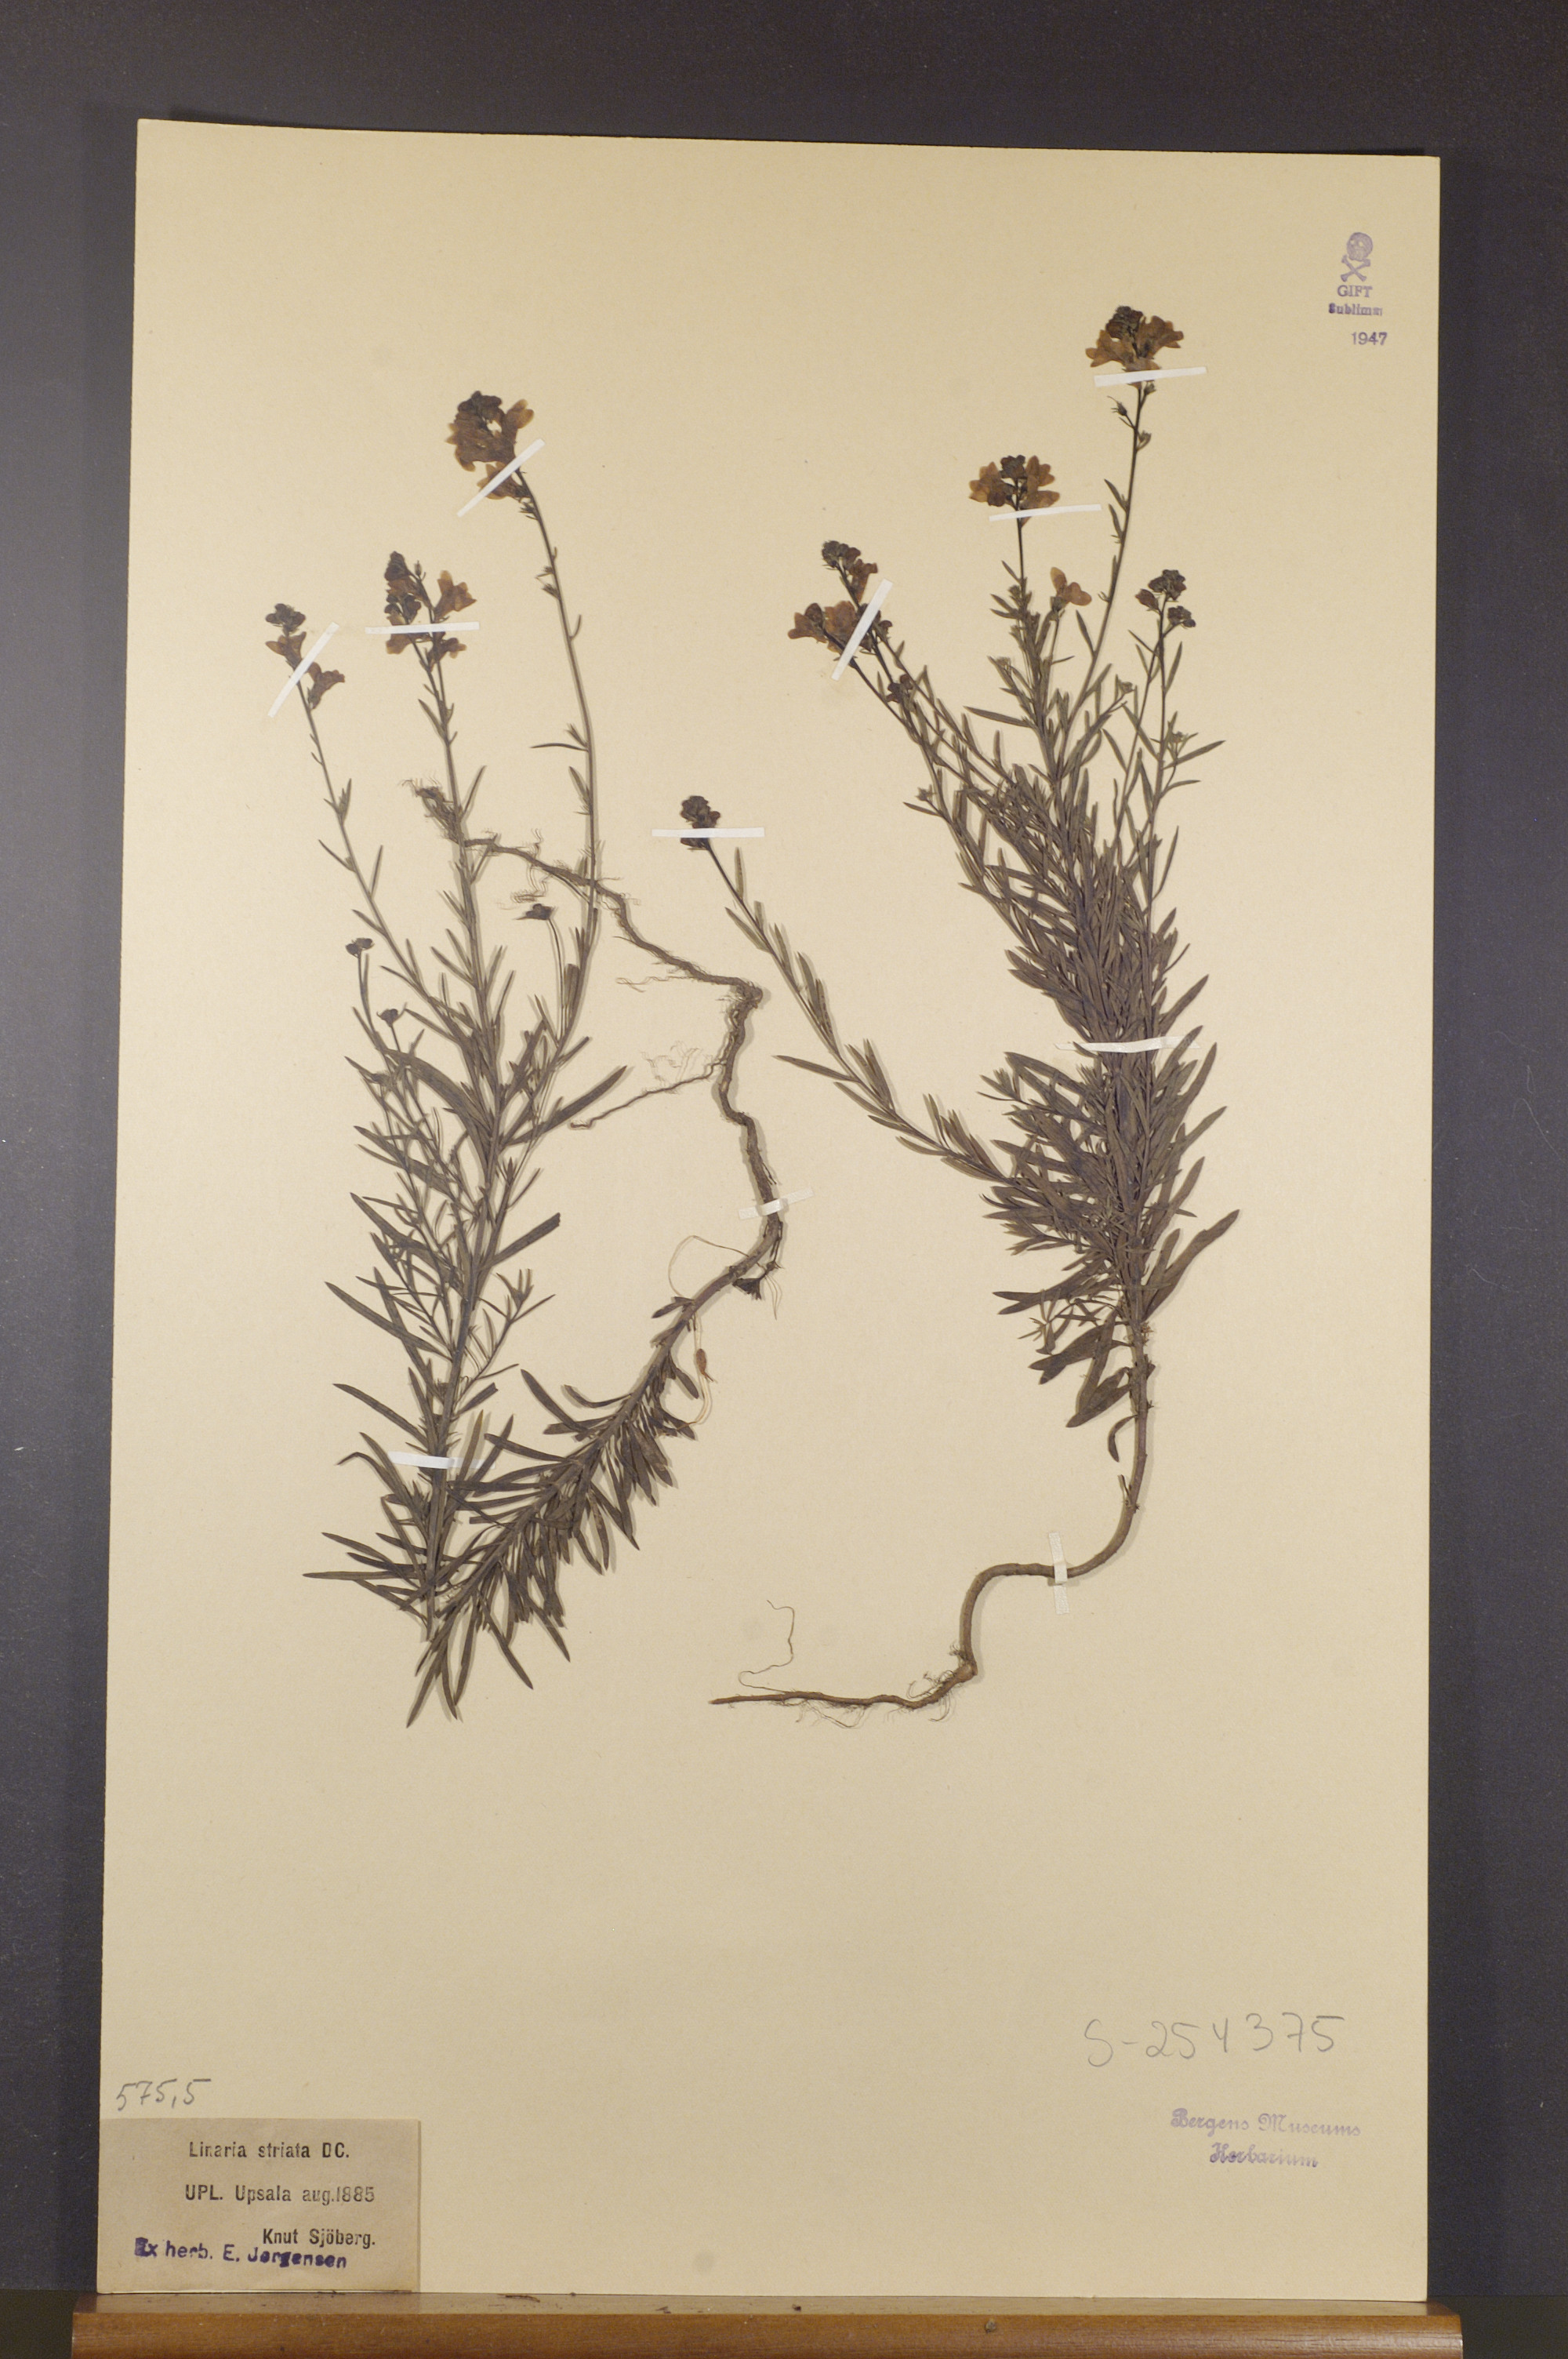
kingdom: Plantae
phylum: Tracheophyta
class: Magnoliopsida
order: Lamiales
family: Plantaginaceae
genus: Linaria
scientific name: Linaria repens
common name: Pale toadflax
